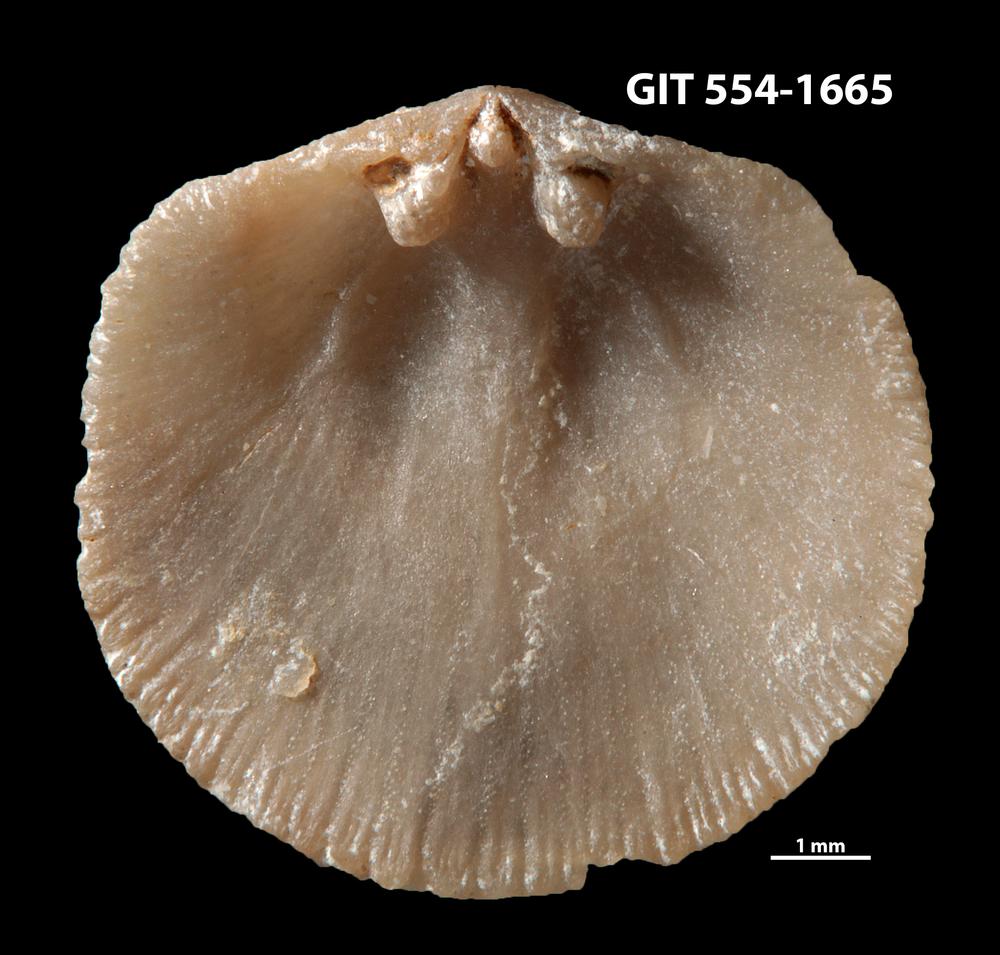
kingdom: Animalia
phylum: Brachiopoda
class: Rhynchonellata
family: Rhipidomellidae
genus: Mendacella
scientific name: Mendacella circularis
